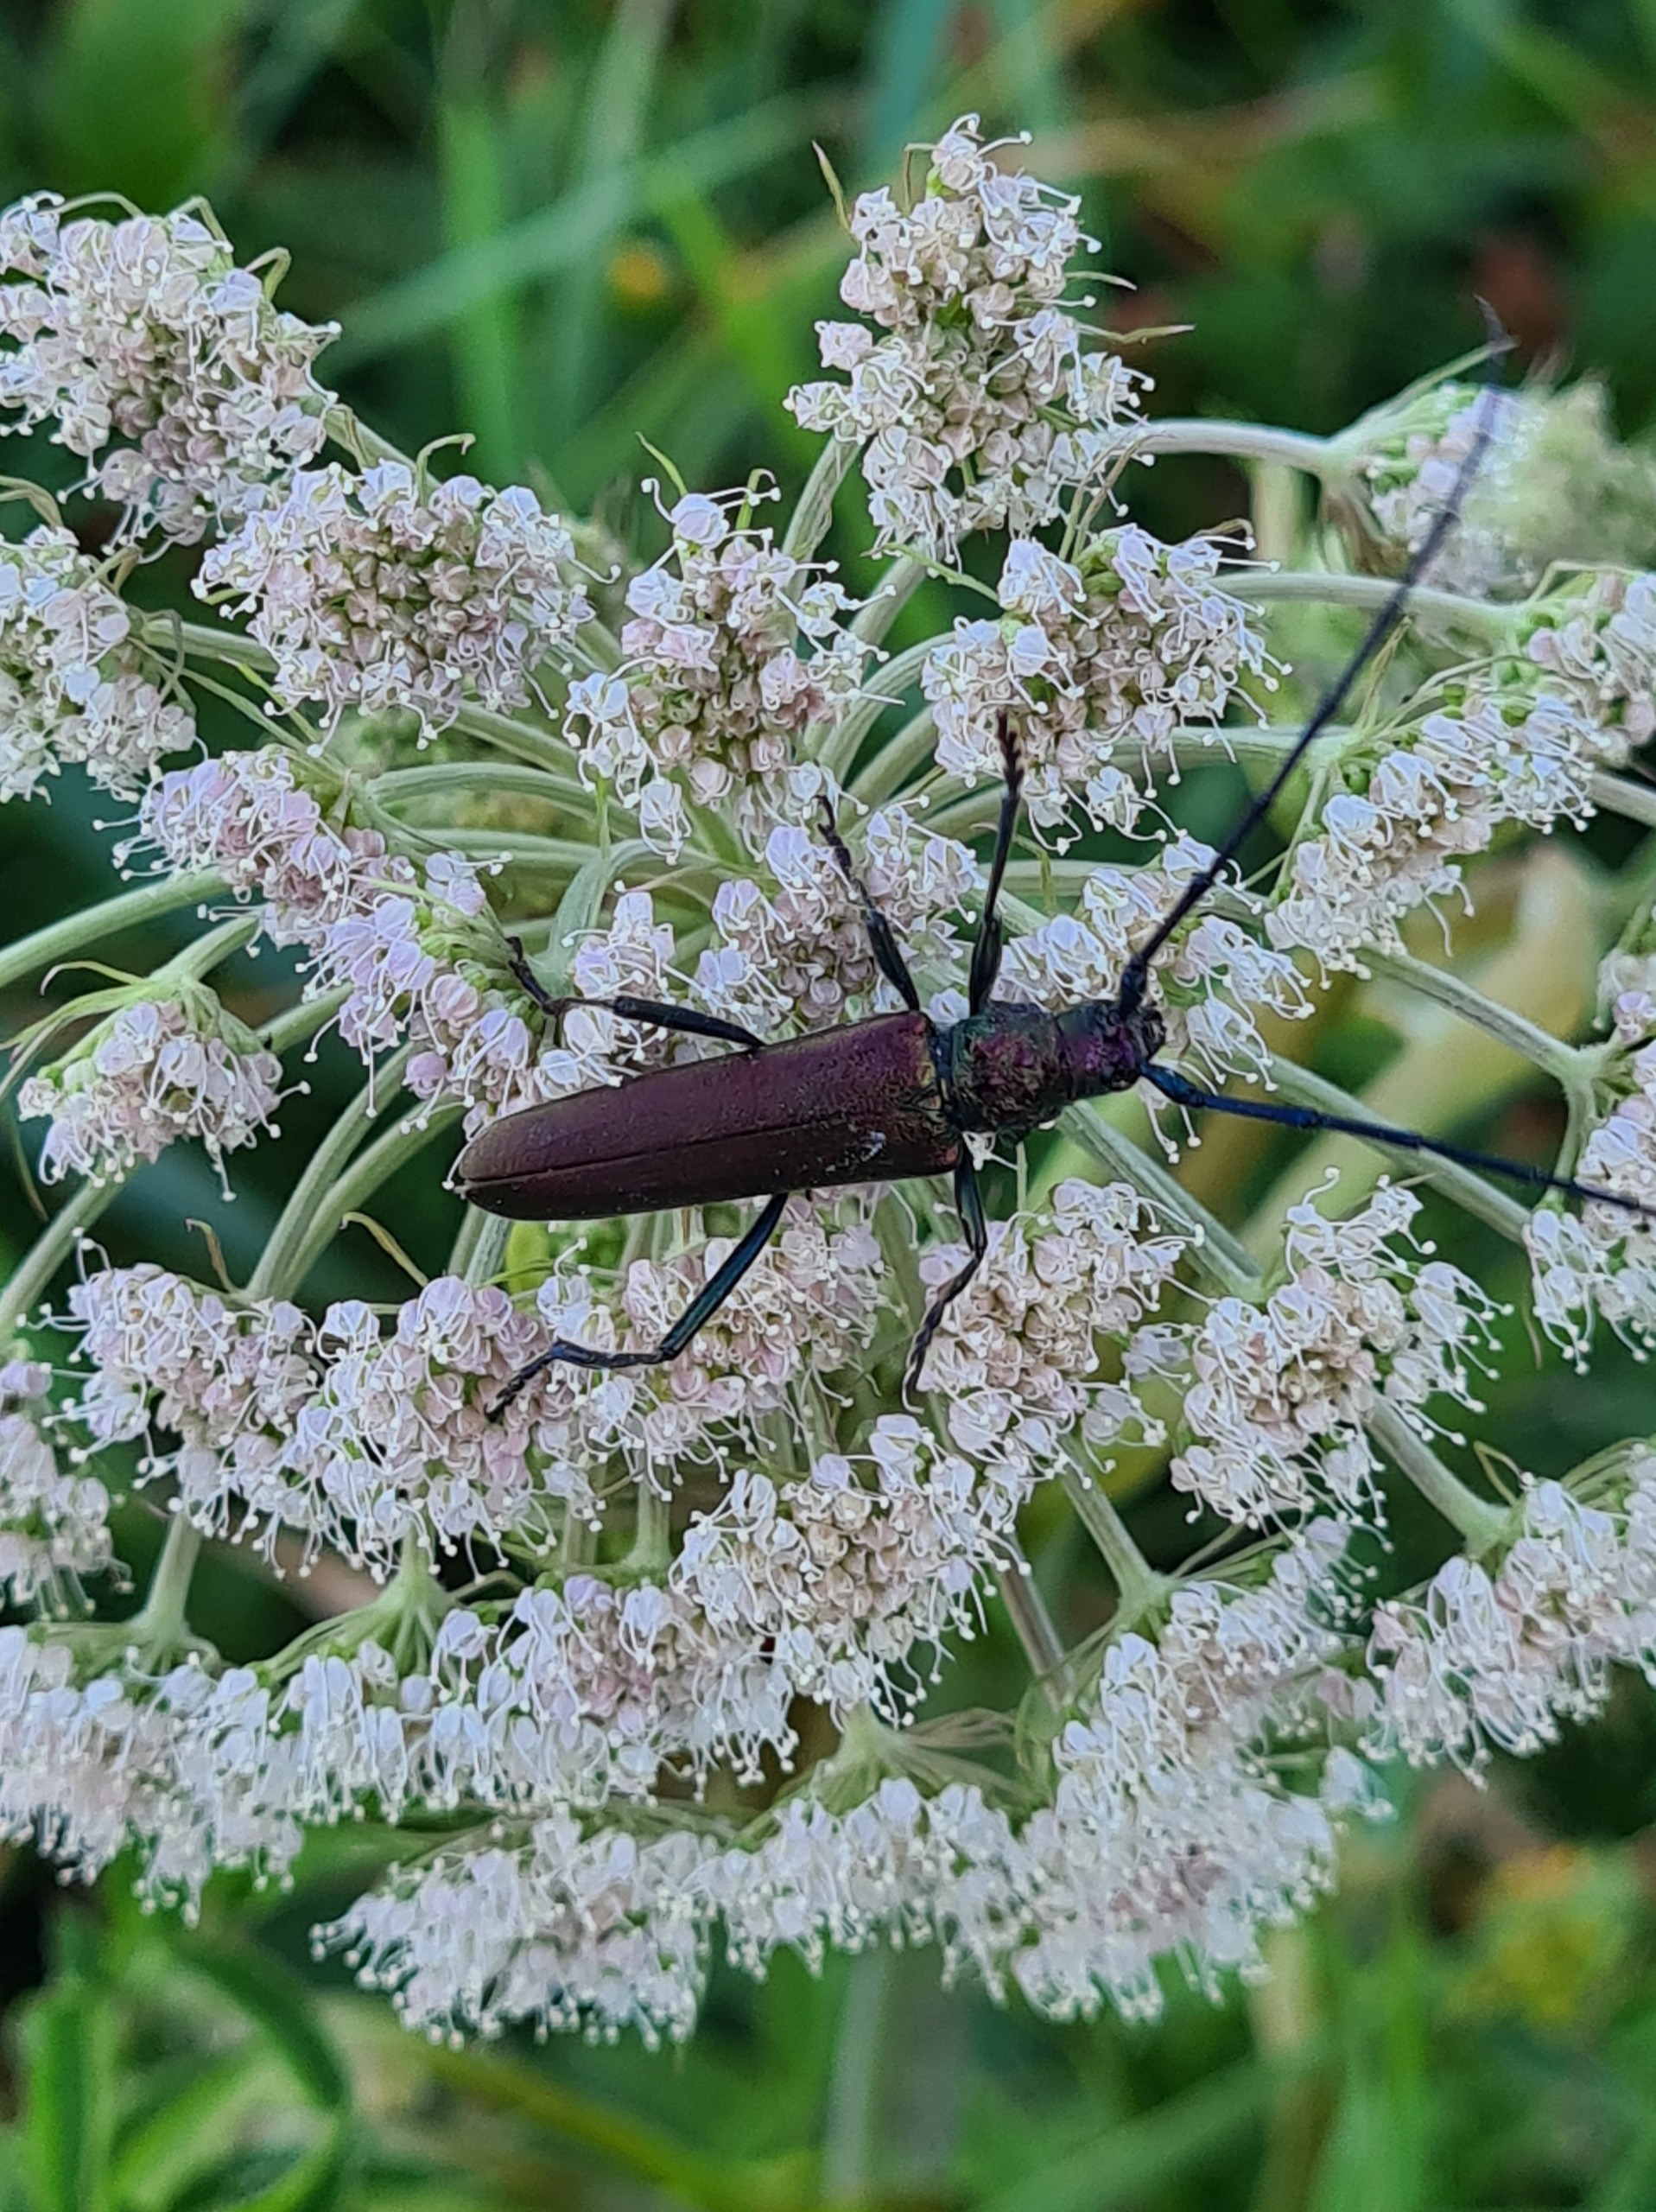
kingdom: Animalia
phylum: Arthropoda
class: Insecta
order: Coleoptera
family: Cerambycidae
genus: Aromia
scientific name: Aromia moschata
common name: Moskusbuk
